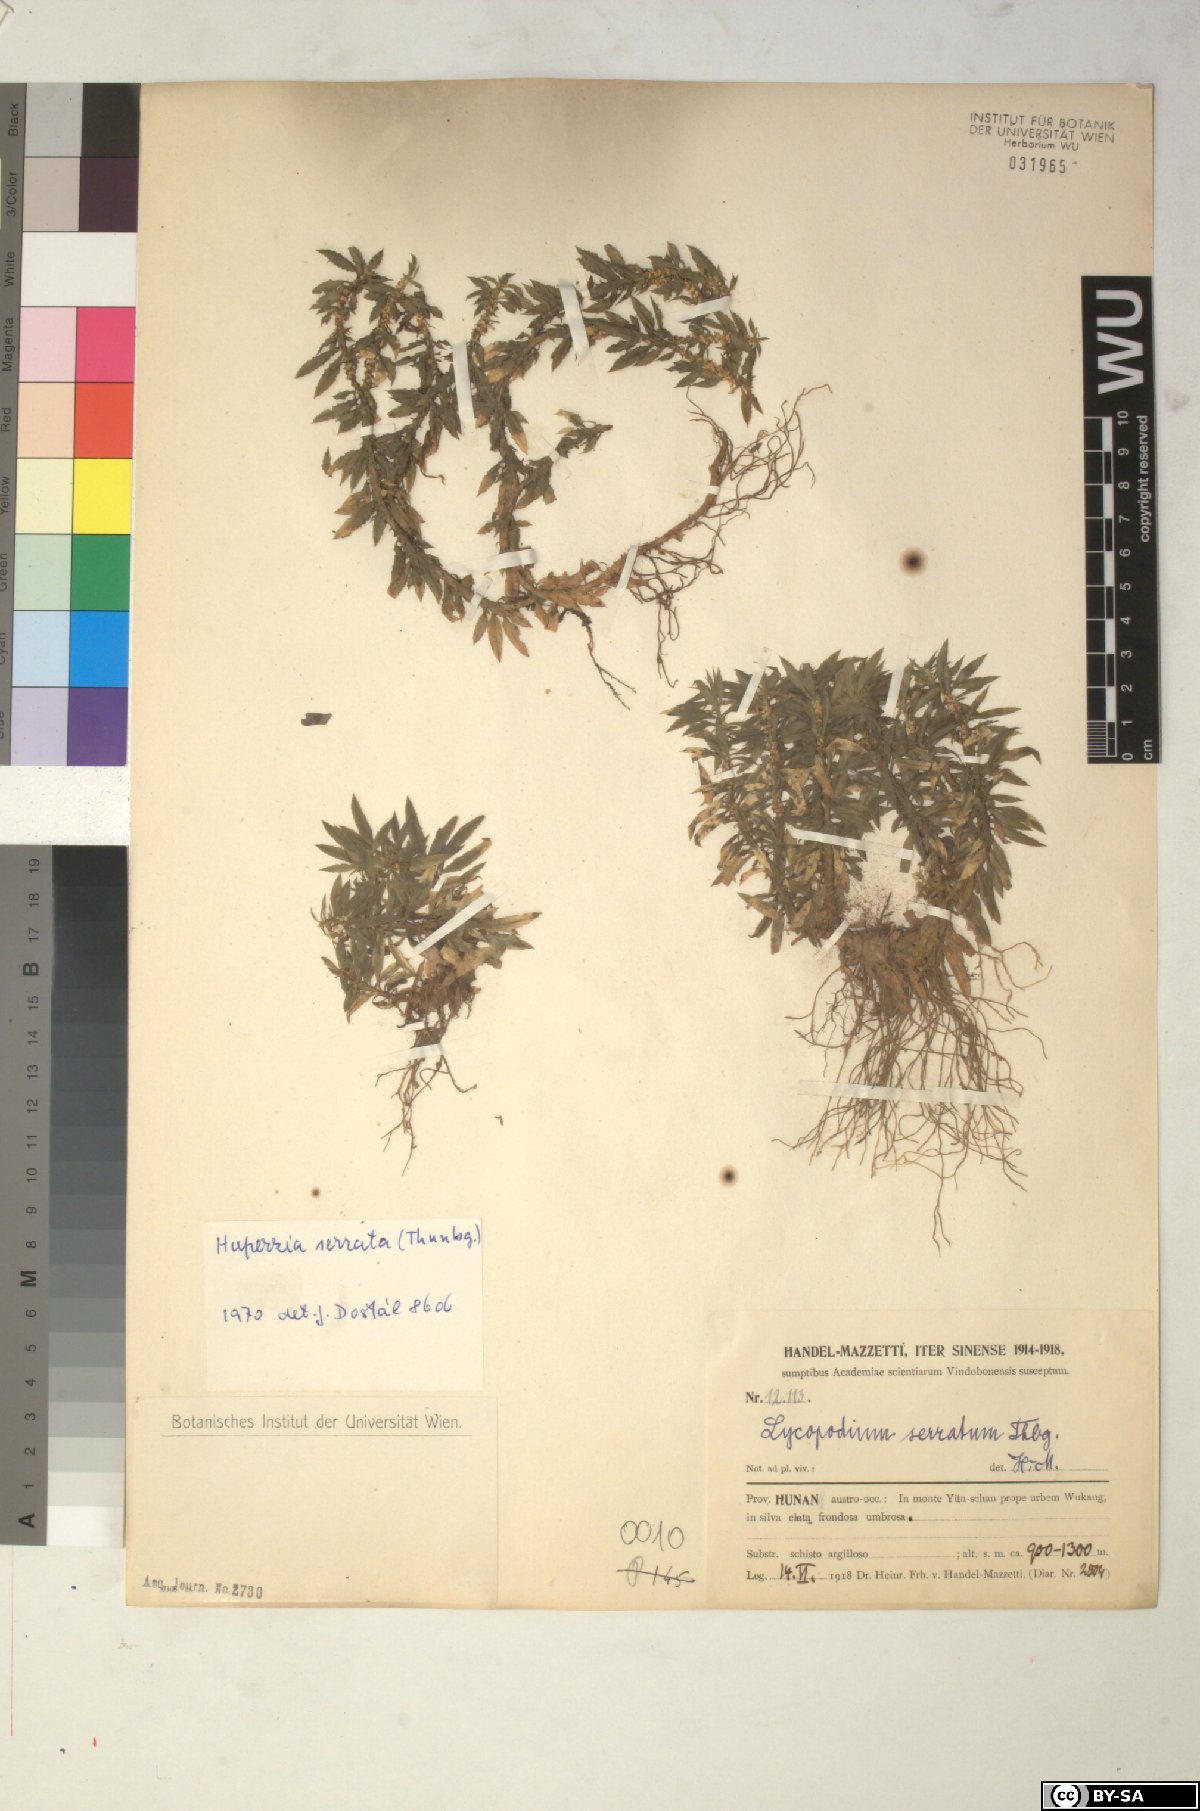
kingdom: Plantae
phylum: Tracheophyta
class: Lycopodiopsida
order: Lycopodiales
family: Lycopodiaceae
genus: Huperzia
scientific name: Huperzia serrata
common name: Toothed club-moss
